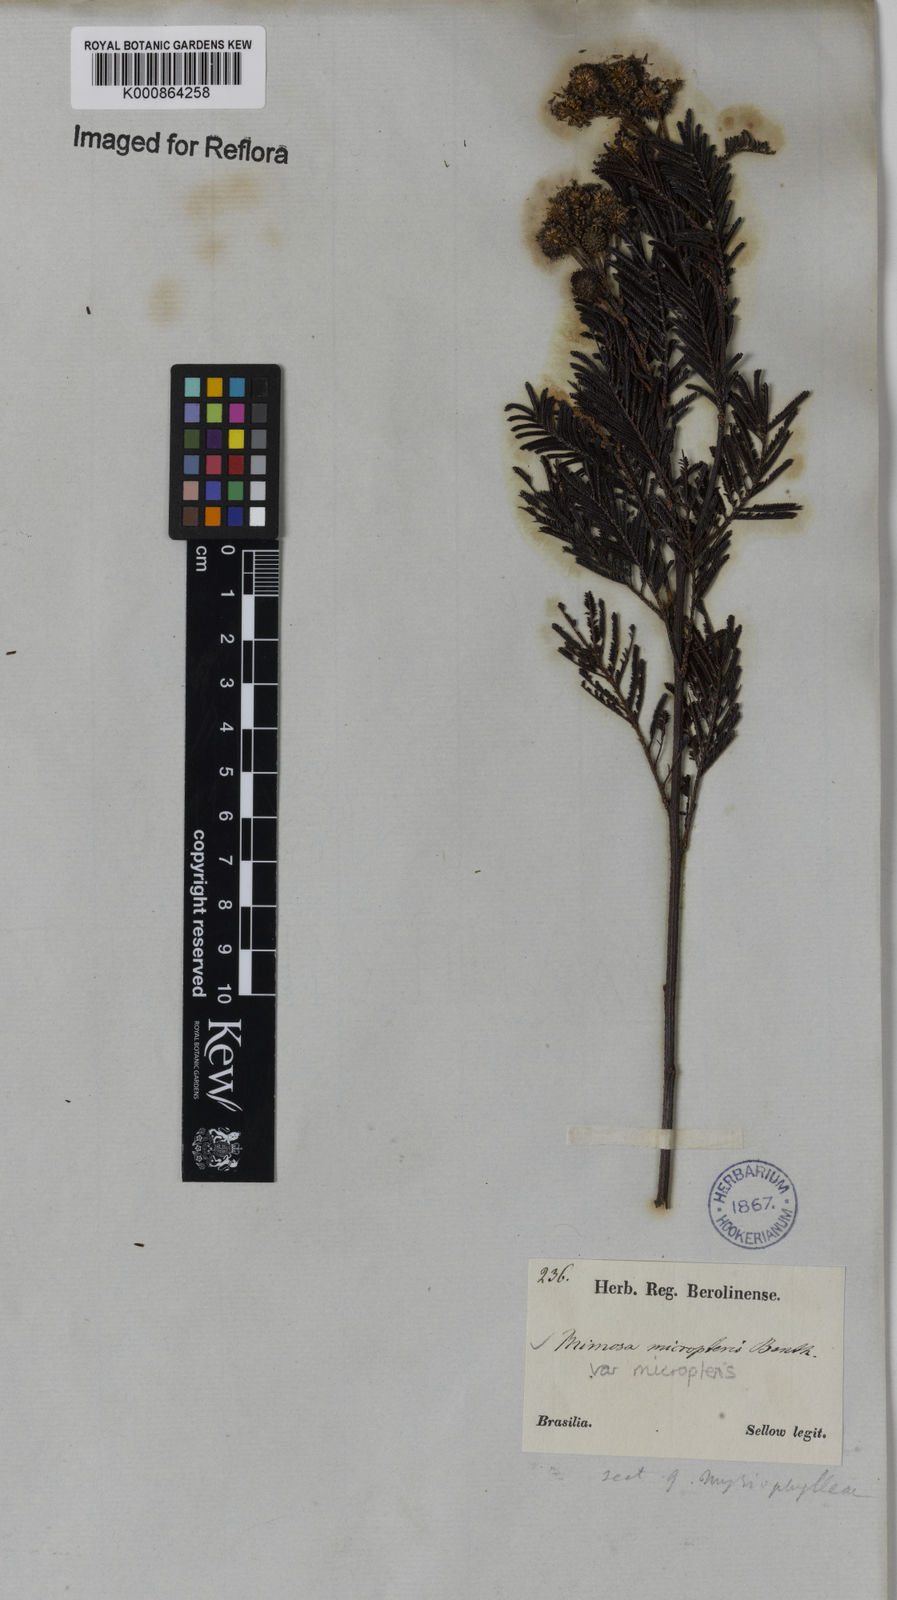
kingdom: Plantae
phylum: Tracheophyta
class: Magnoliopsida
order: Fabales
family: Fabaceae
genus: Mimosa
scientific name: Mimosa micropteris
